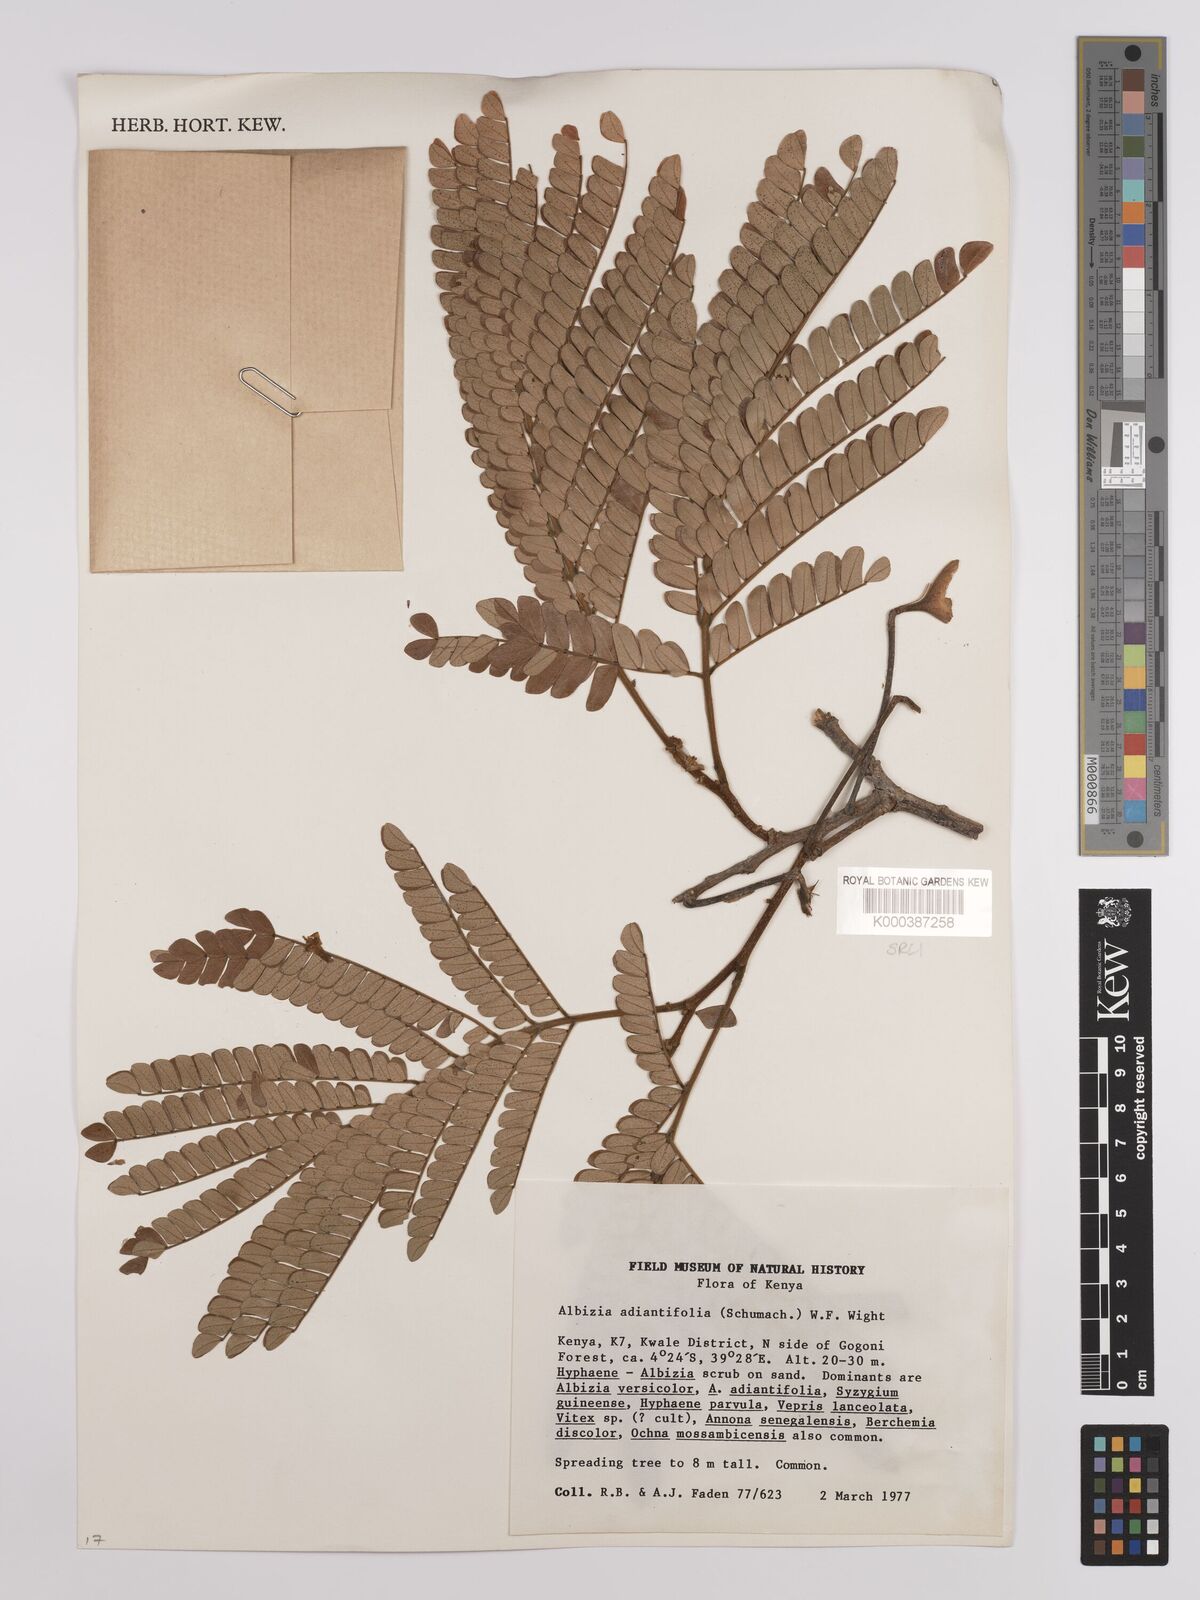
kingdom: Plantae
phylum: Tracheophyta
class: Magnoliopsida
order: Fabales
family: Fabaceae
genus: Albizia
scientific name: Albizia adianthifolia
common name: West african albizia
